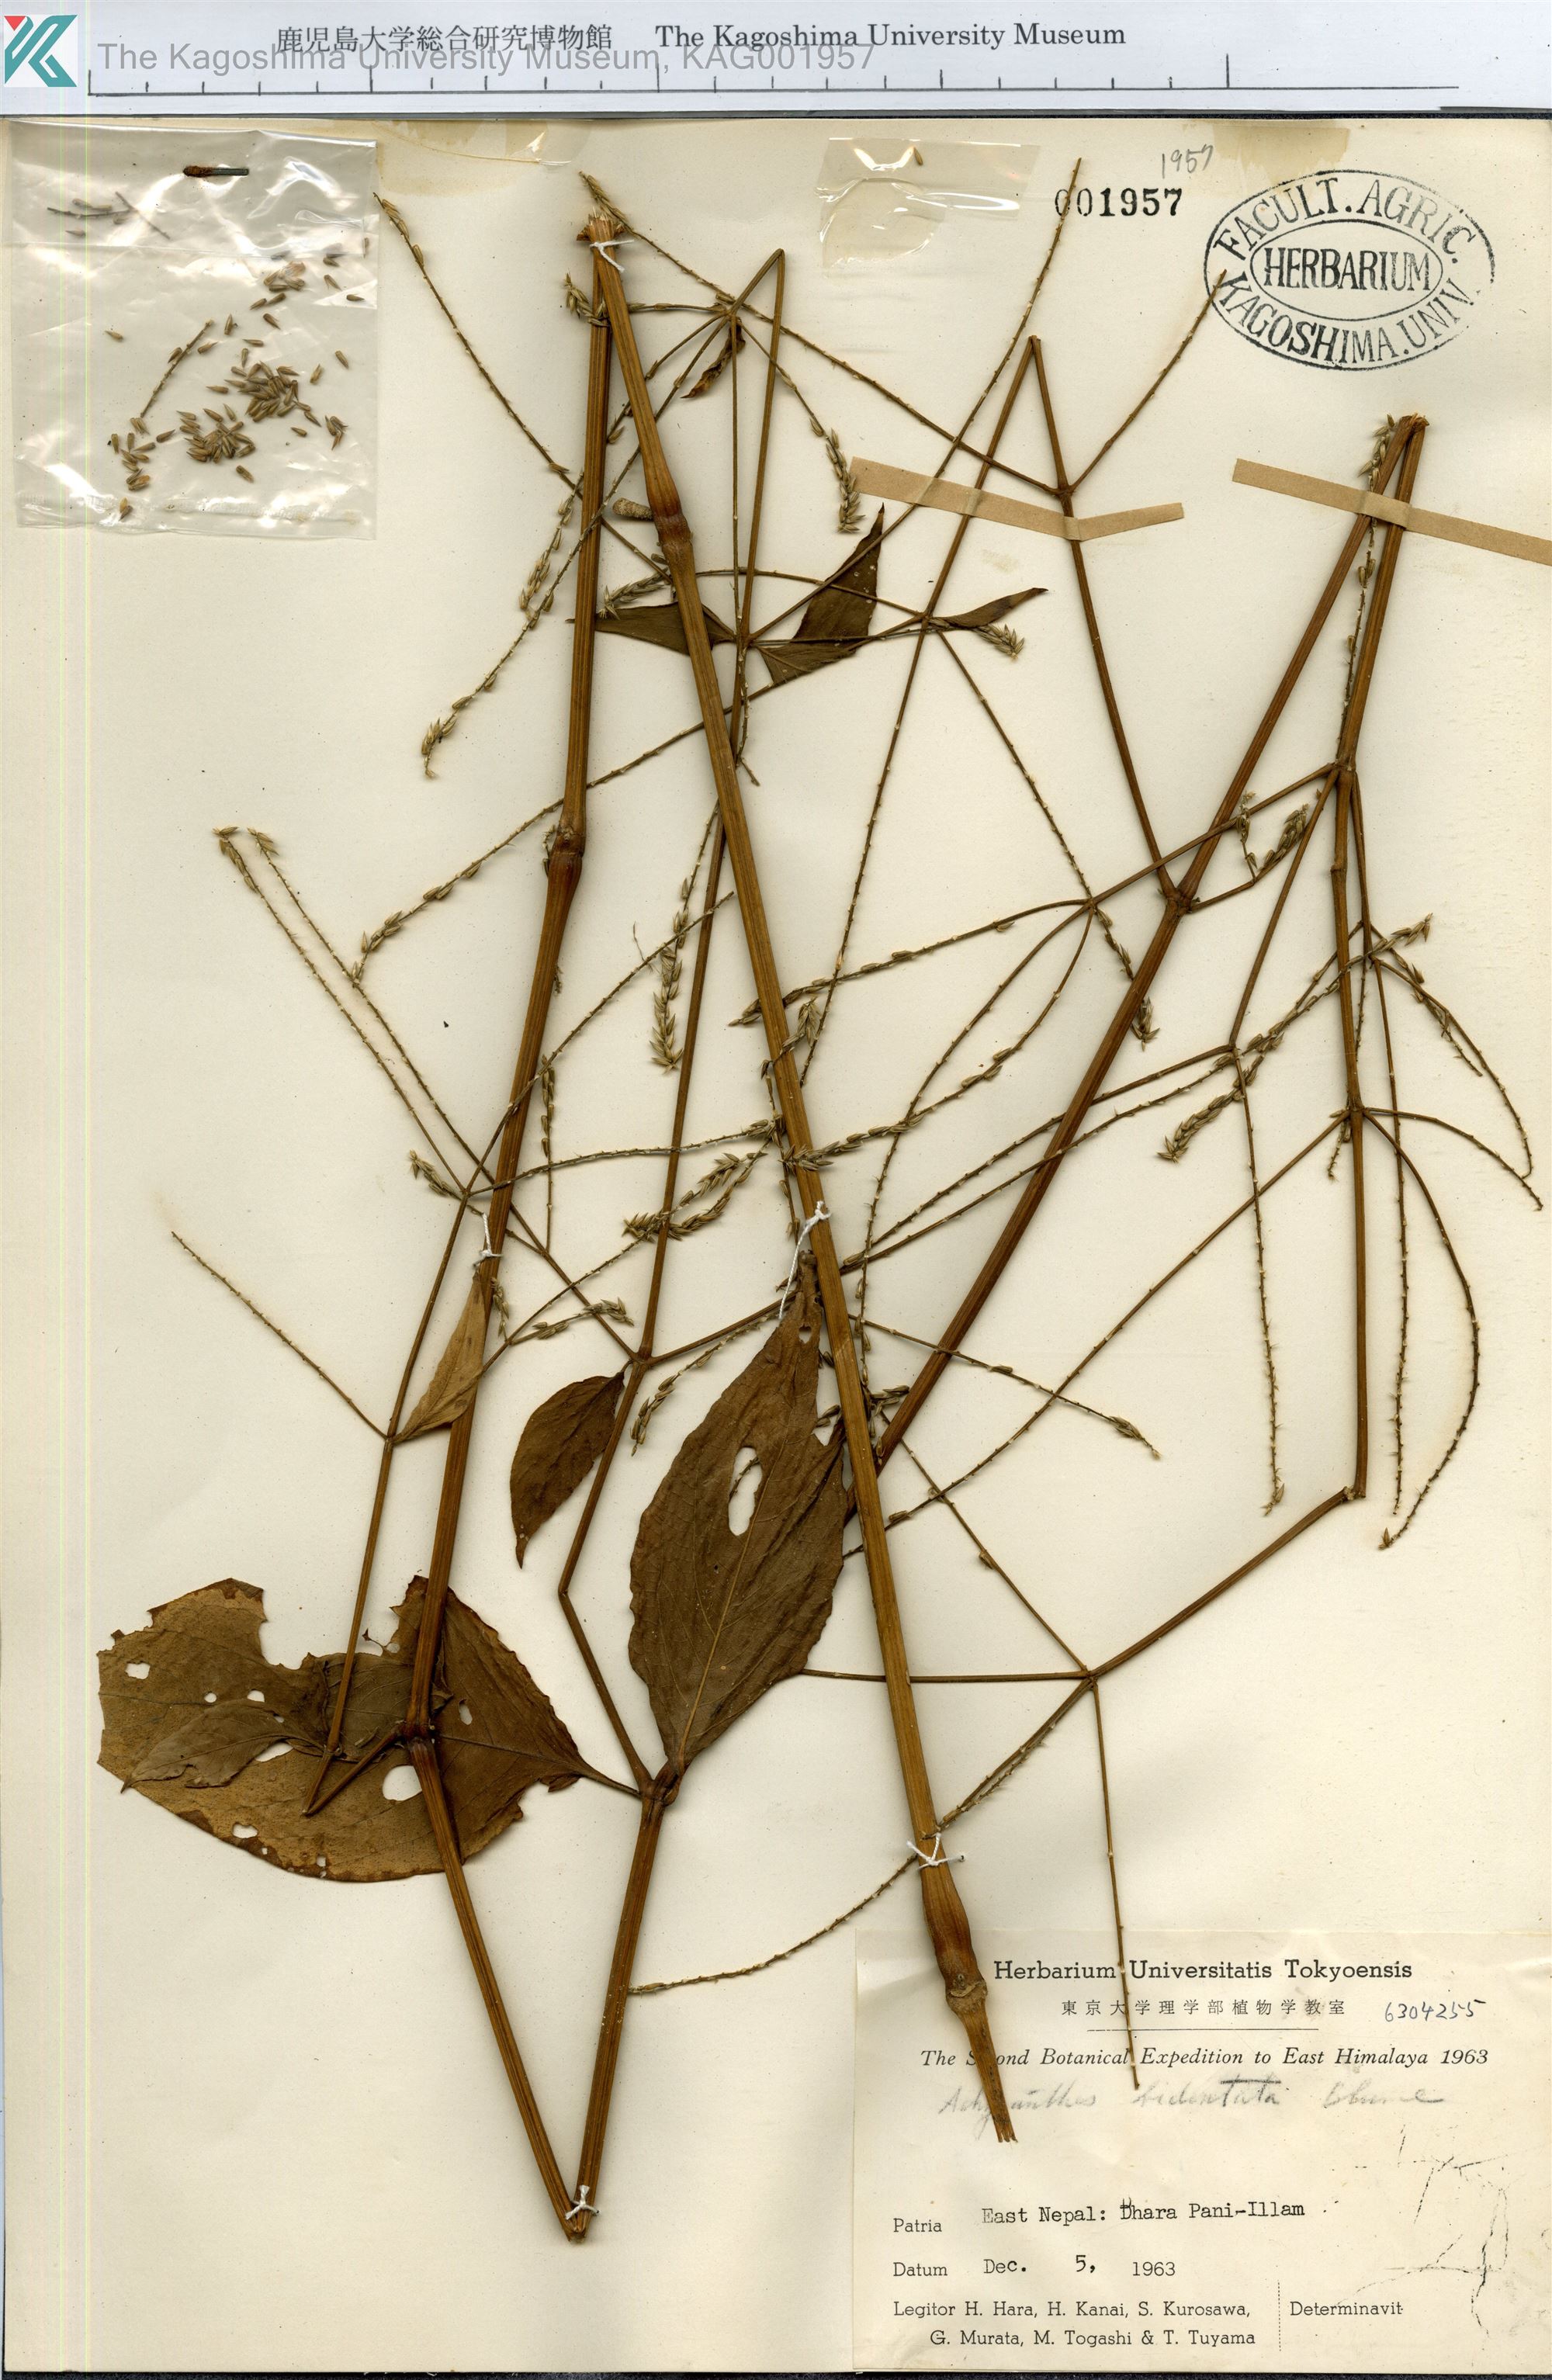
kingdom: Plantae
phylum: Tracheophyta
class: Magnoliopsida
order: Caryophyllales
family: Amaranthaceae
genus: Achyranthes
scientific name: Achyranthes bidentata
